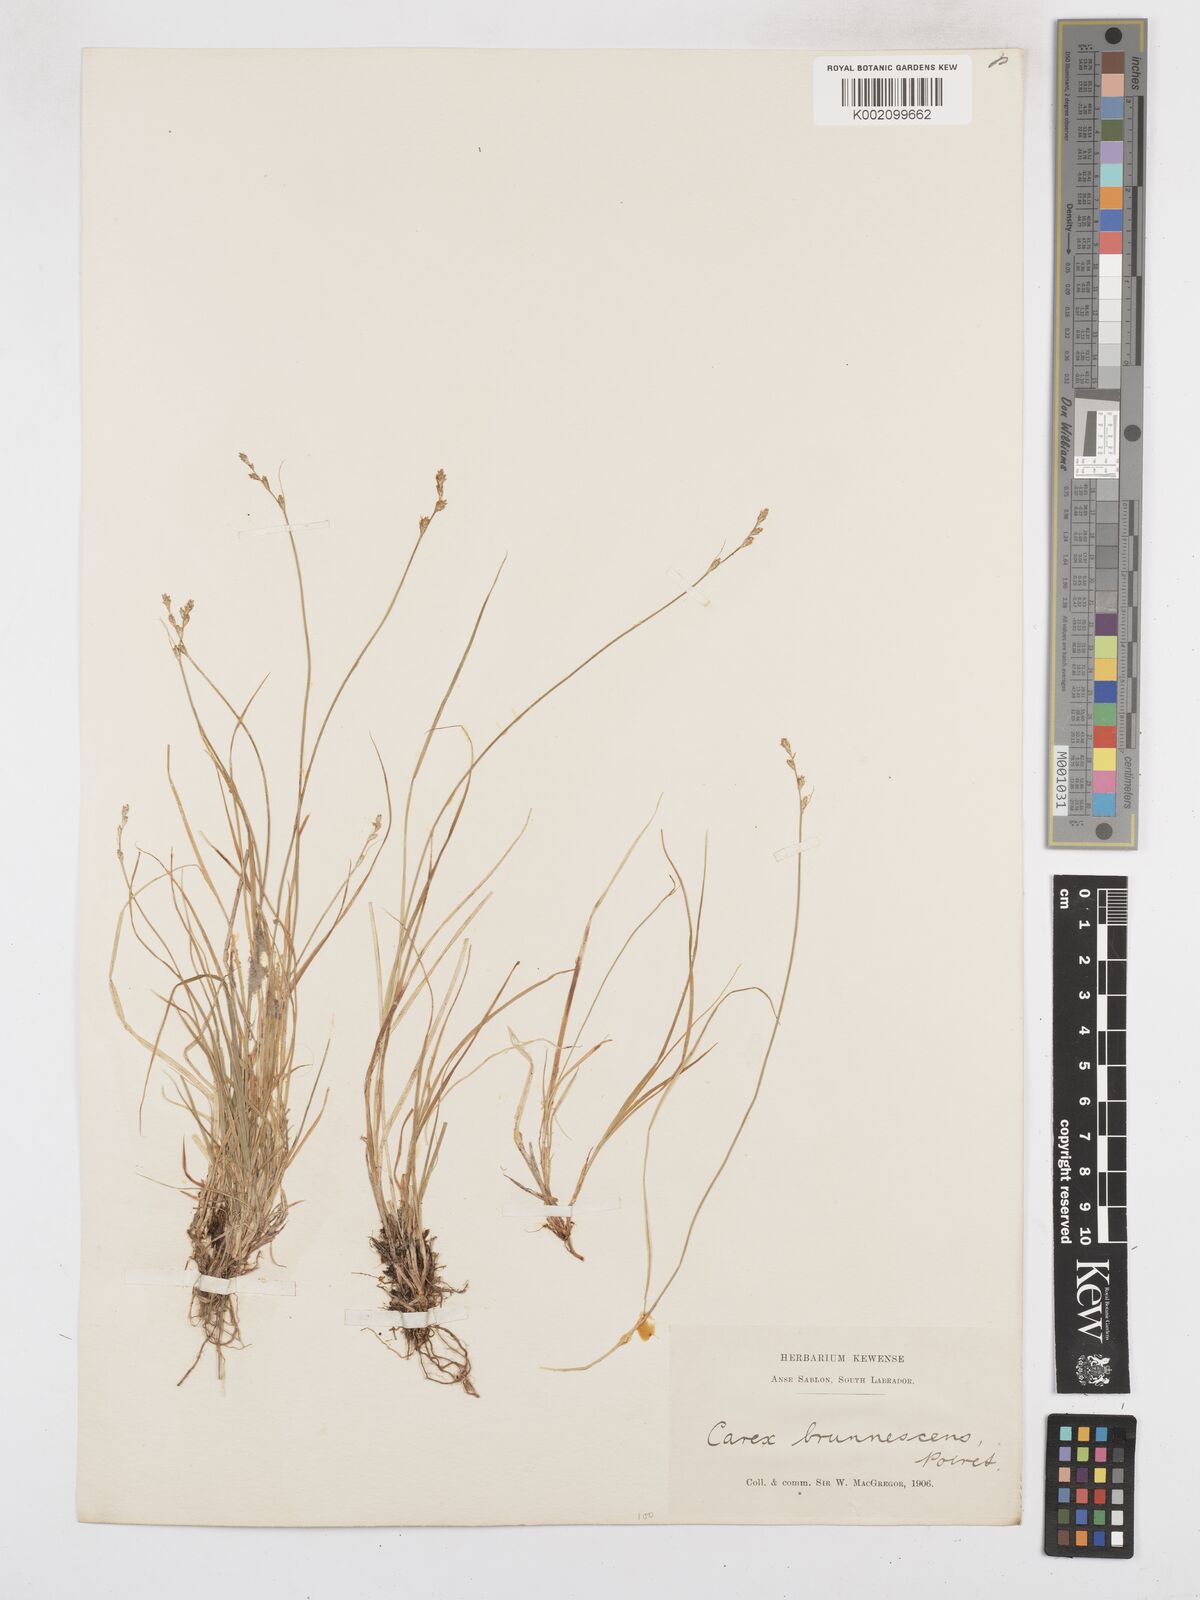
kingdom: Plantae
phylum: Tracheophyta
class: Liliopsida
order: Poales
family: Cyperaceae
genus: Carex
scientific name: Carex brunnescens
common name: Brown sedge
